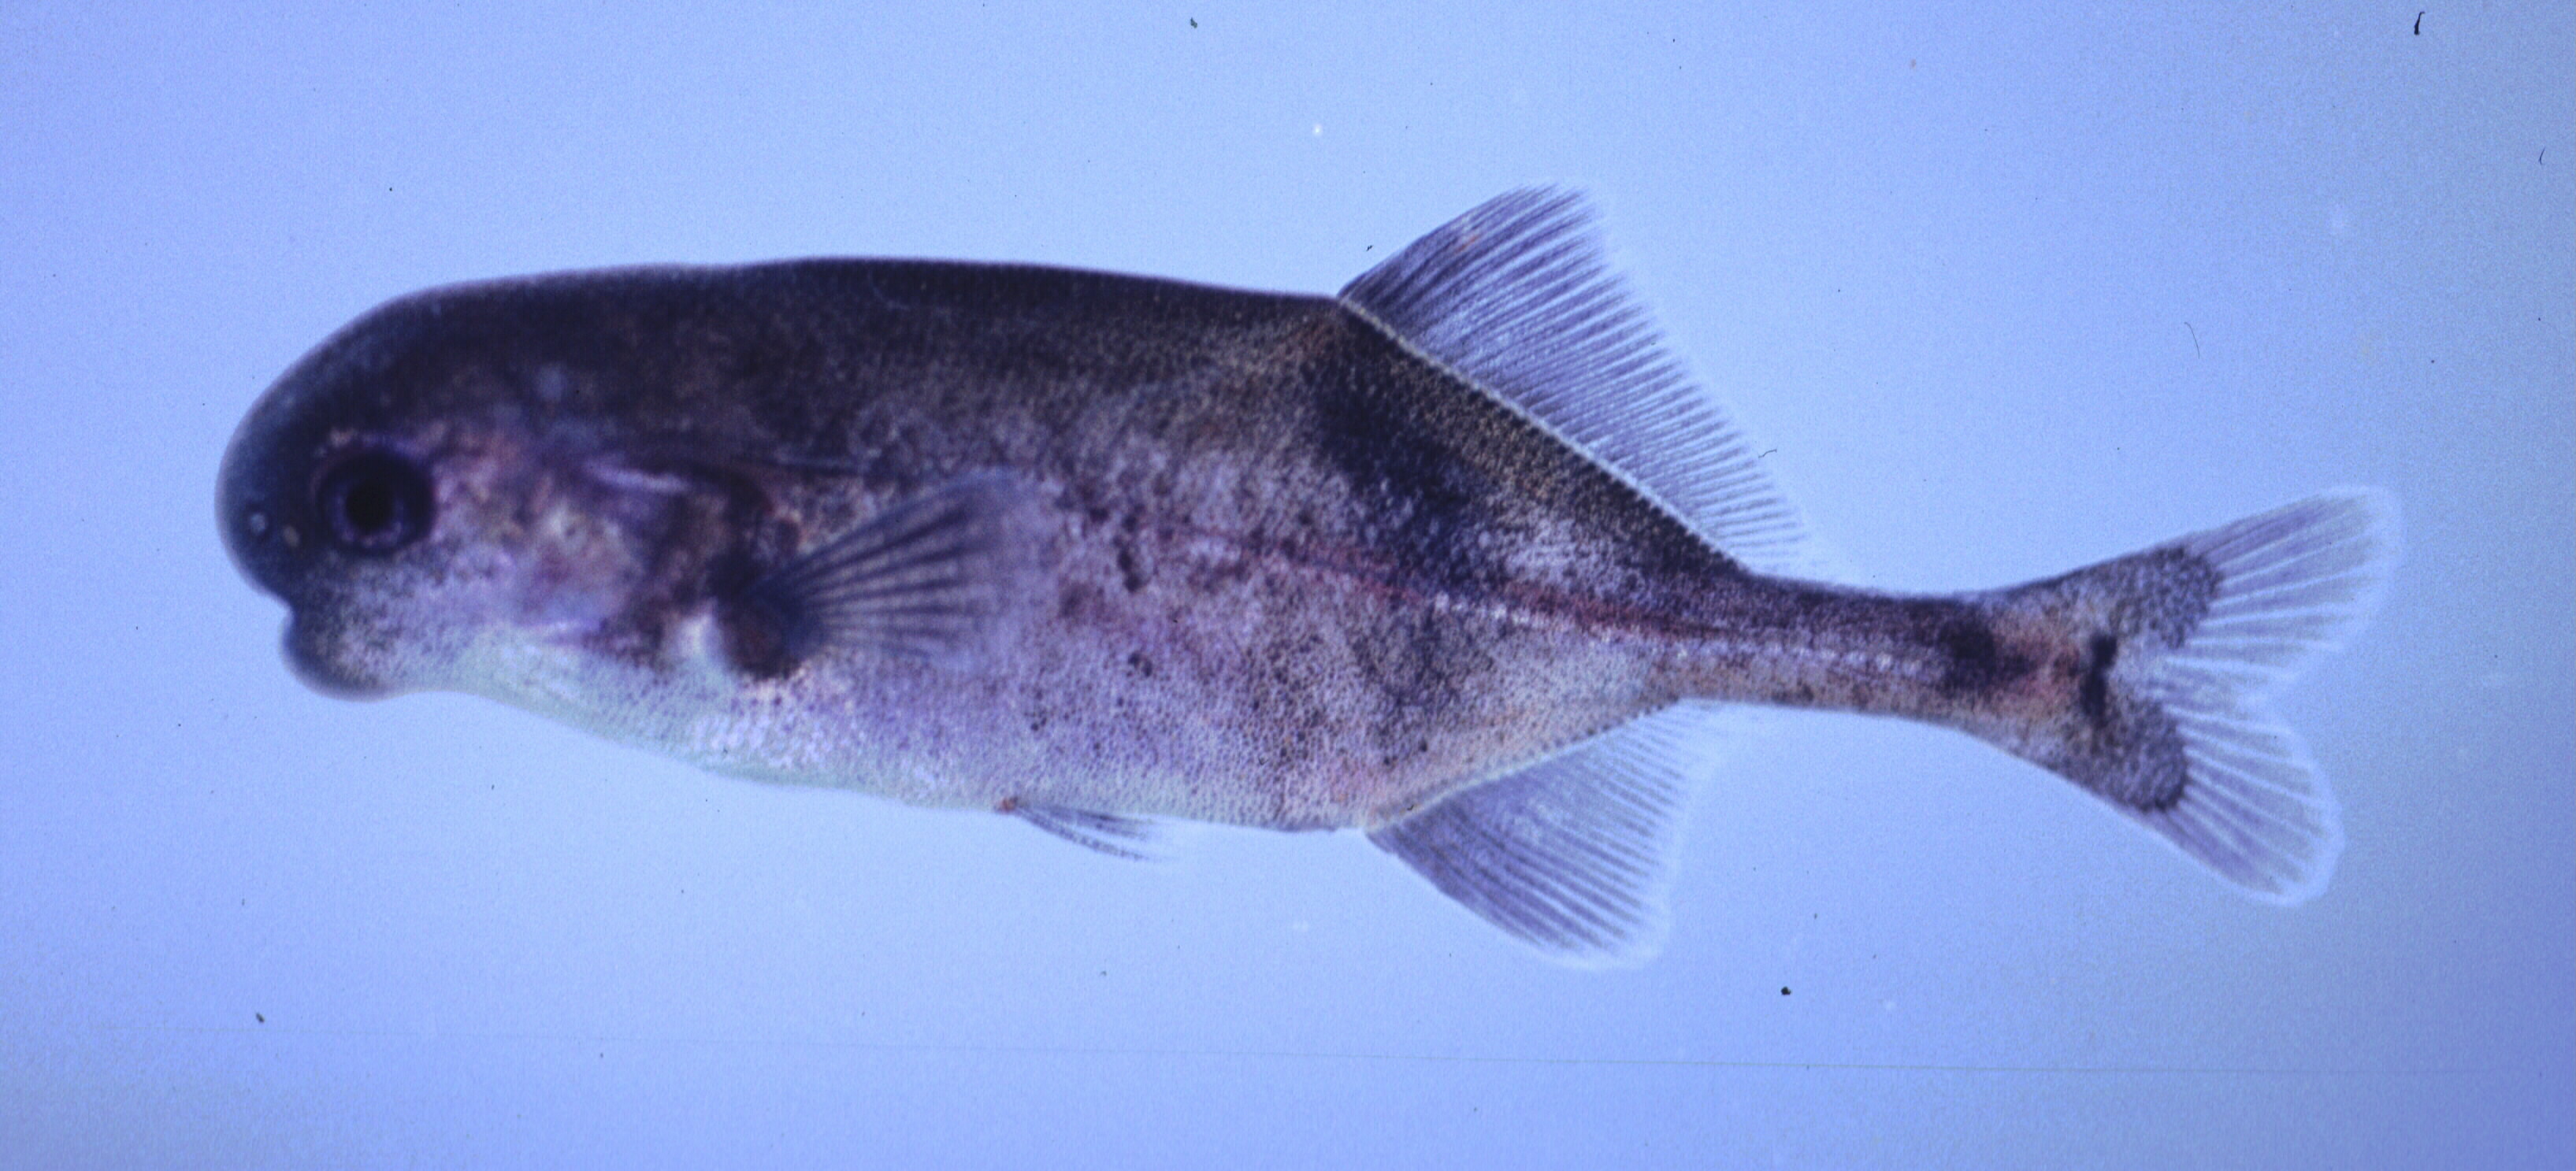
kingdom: Animalia
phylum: Chordata
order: Osteoglossiformes
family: Mormyridae
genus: Cyphomyrus
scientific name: Cyphomyrus discorhynchus
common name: Zambezi parrotfish
